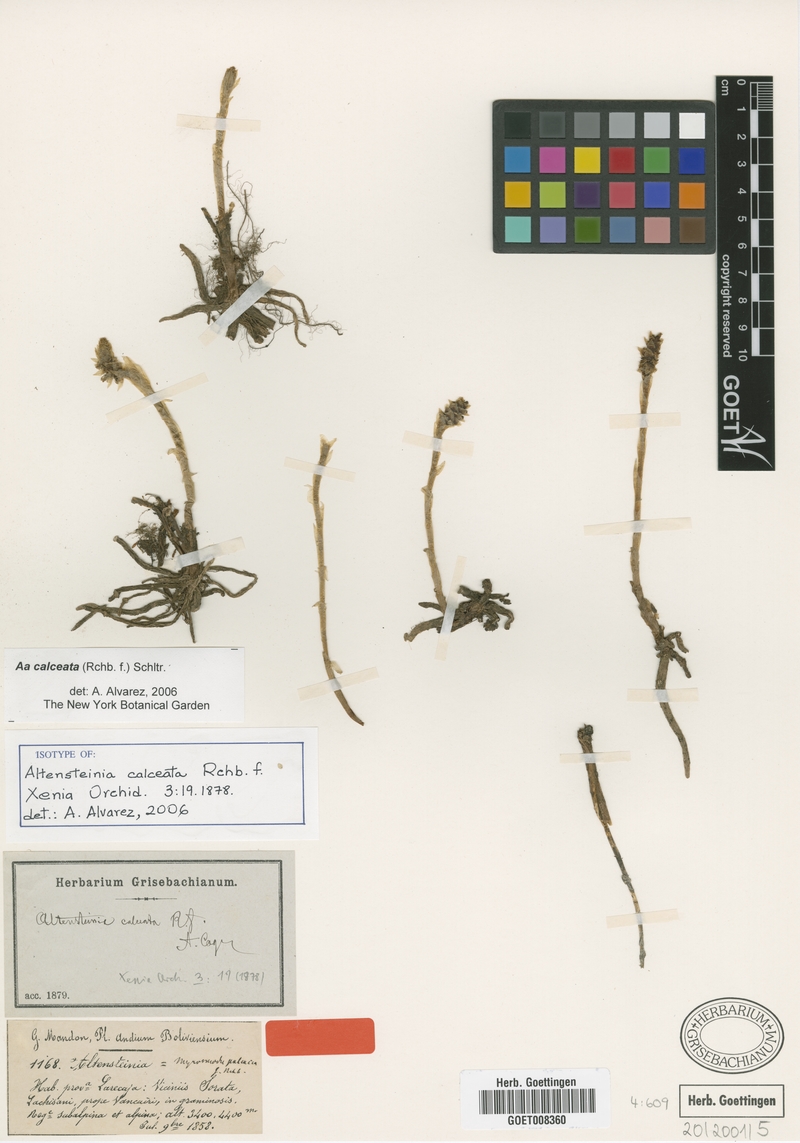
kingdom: Plantae
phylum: Tracheophyta
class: Liliopsida
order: Asparagales
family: Orchidaceae
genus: Aa
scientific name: Aa calceata
